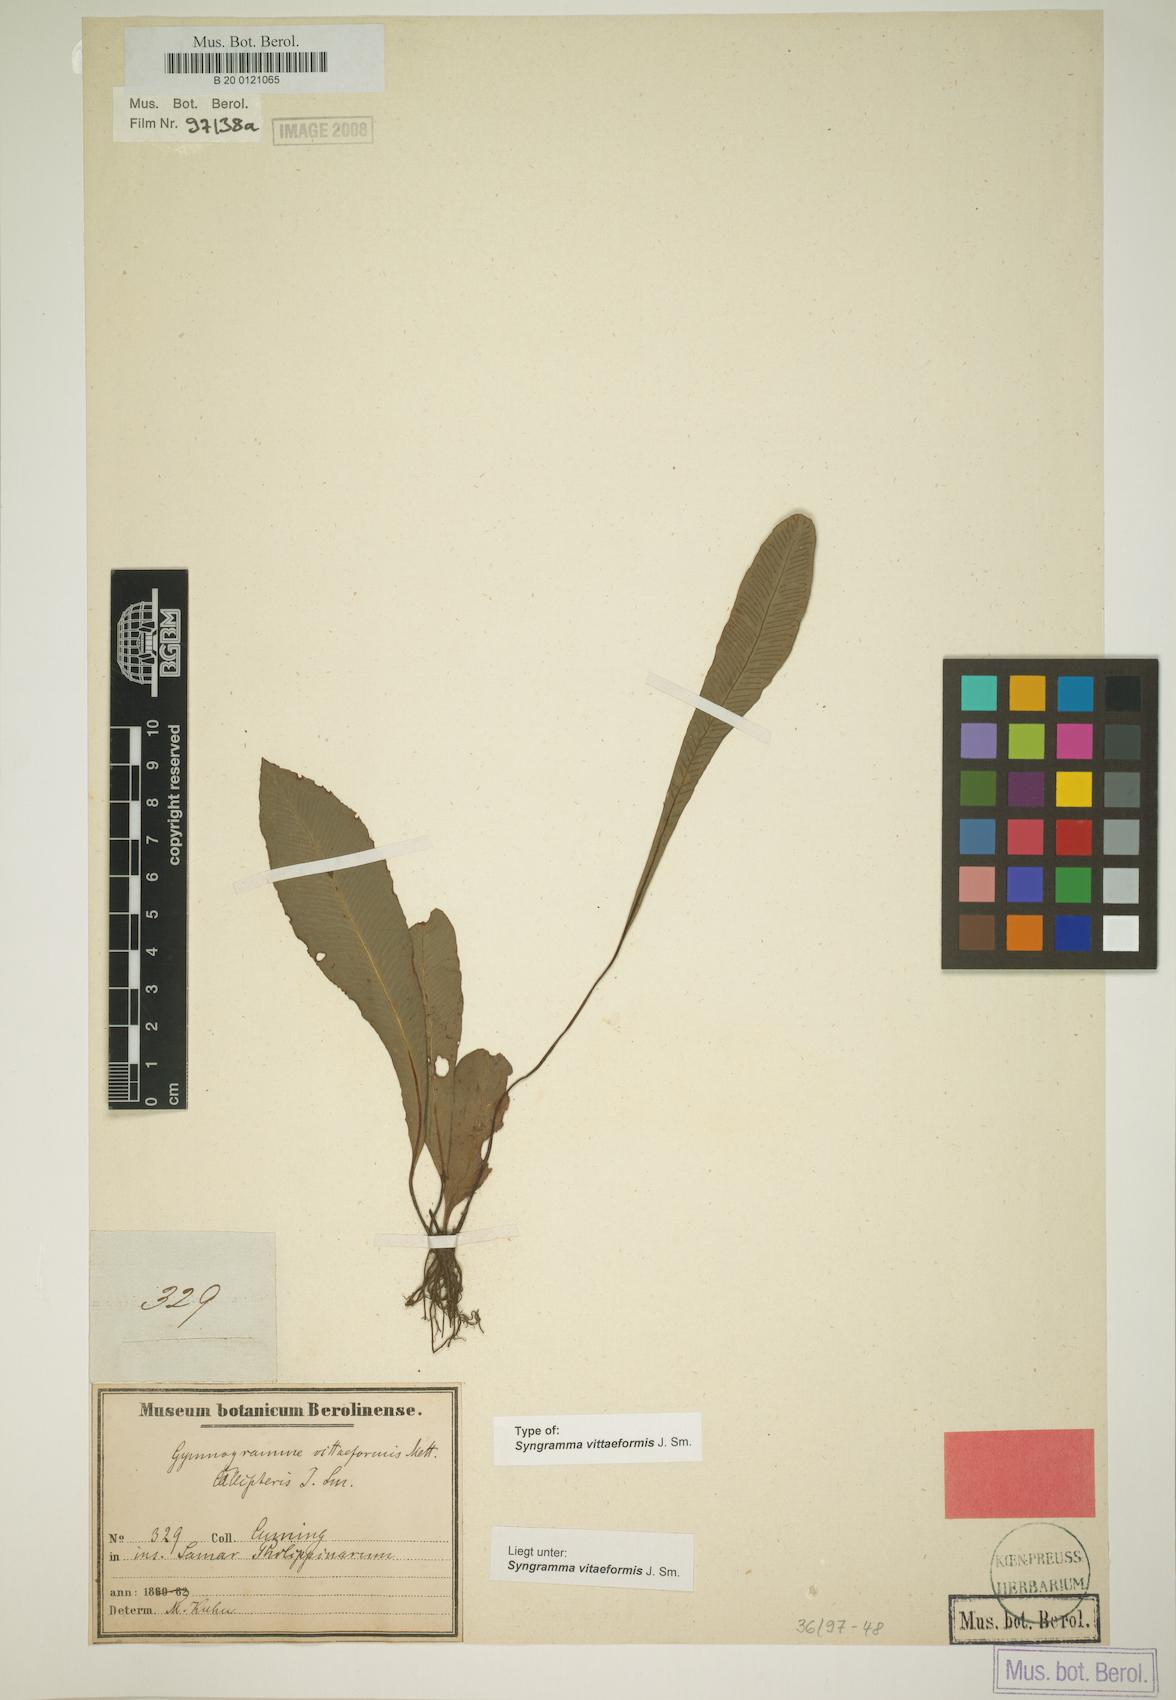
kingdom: Plantae
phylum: Tracheophyta
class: Polypodiopsida
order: Polypodiales
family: Pteridaceae
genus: Syngramma
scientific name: Syngramma vittaeformis
